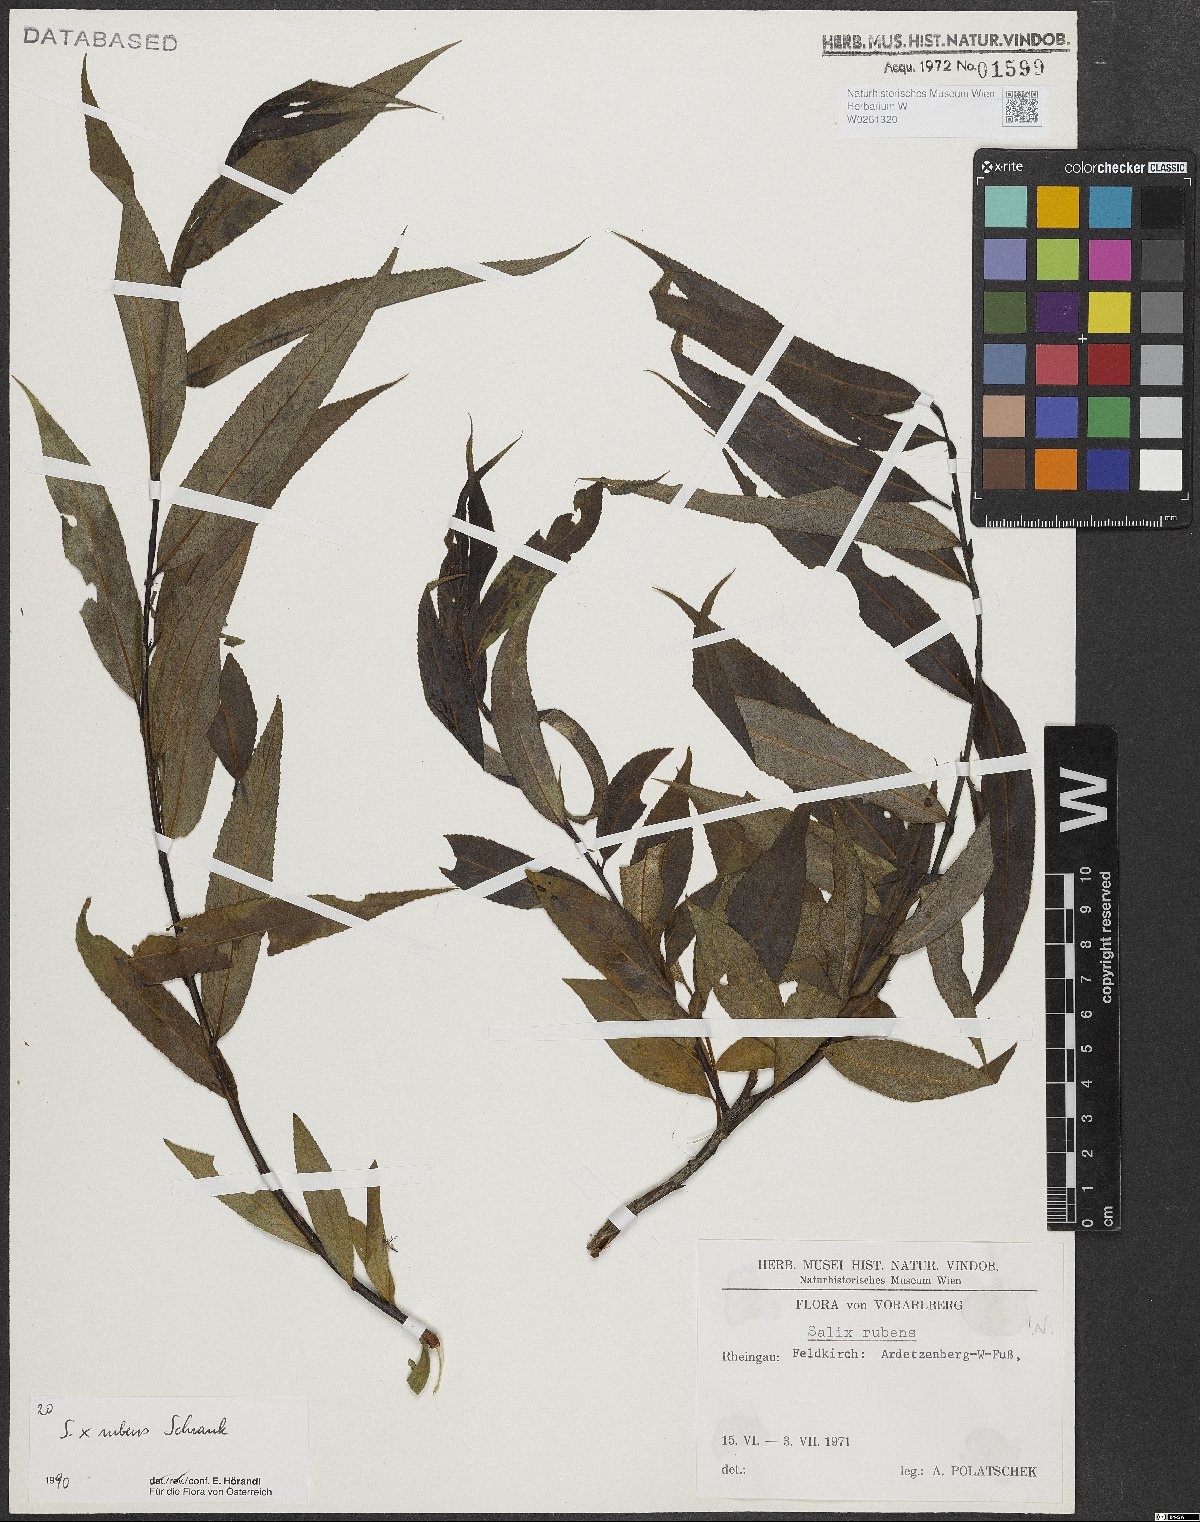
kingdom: Plantae
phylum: Tracheophyta
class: Magnoliopsida
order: Malpighiales
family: Salicaceae
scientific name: Salicaceae
